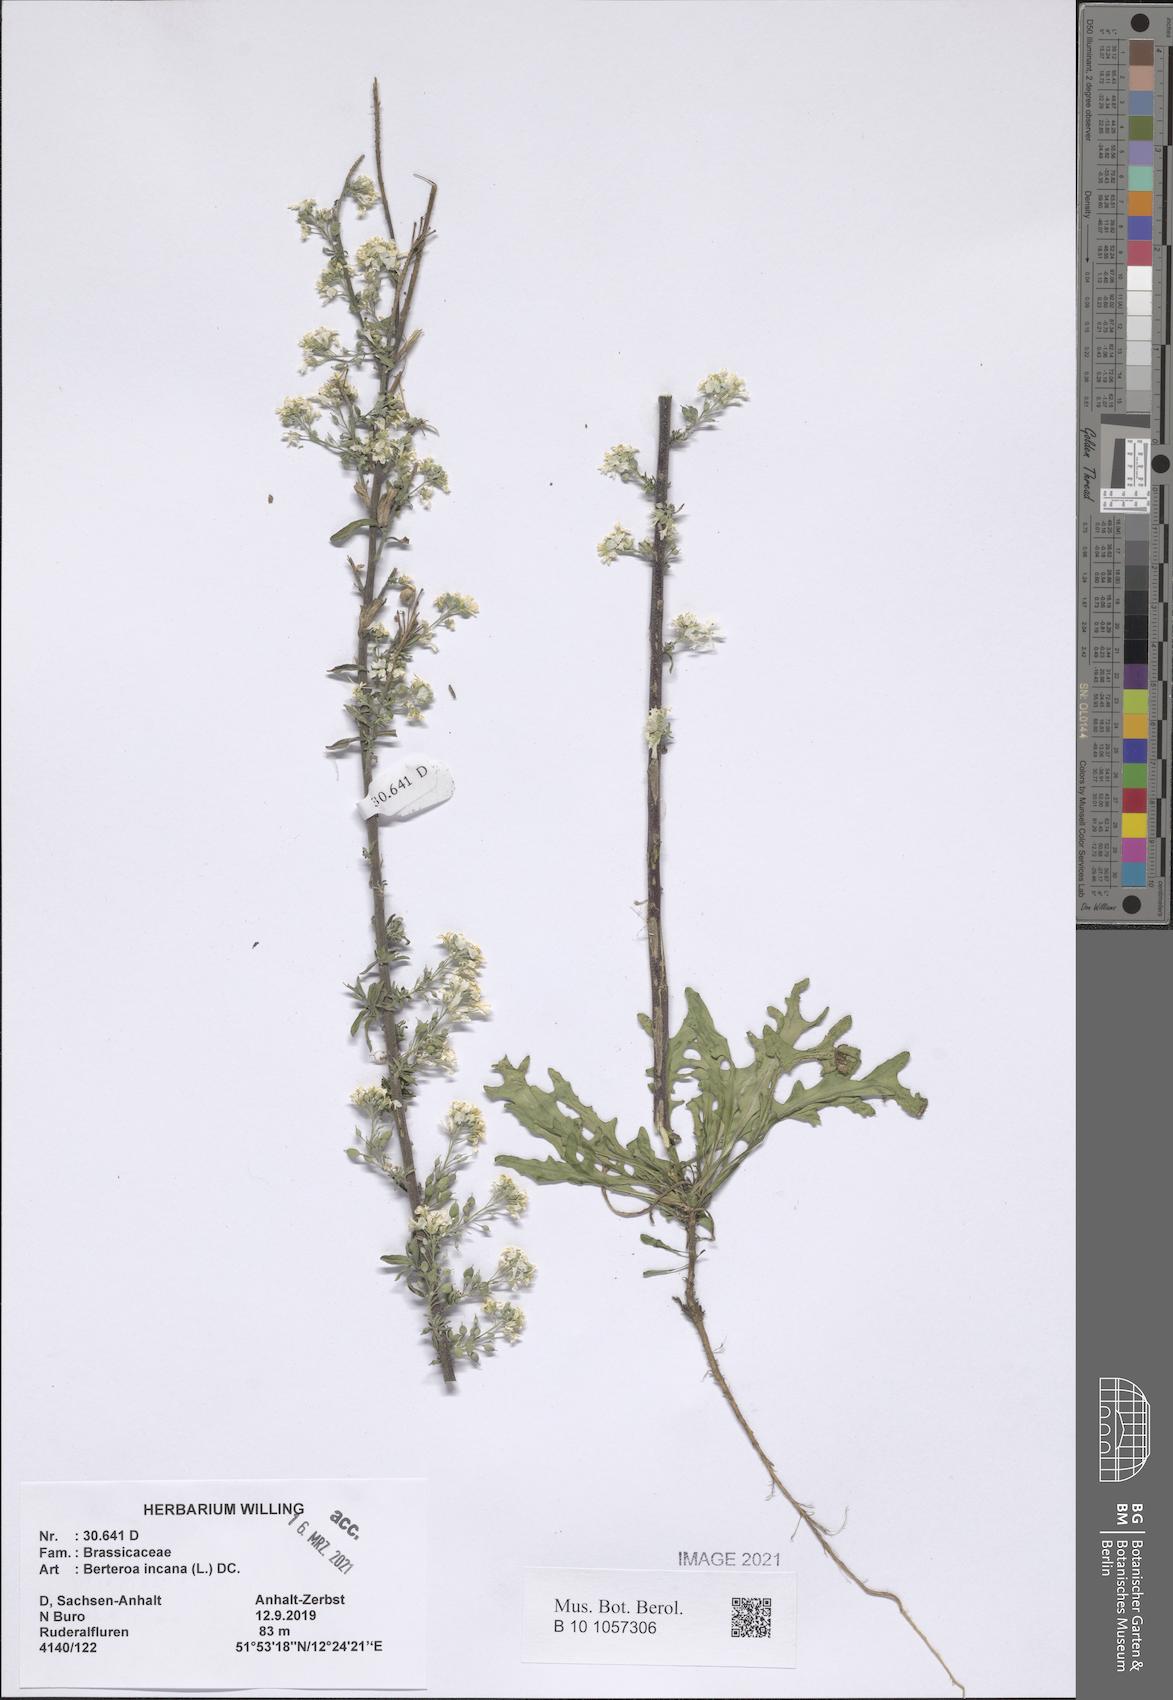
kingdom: Plantae
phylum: Tracheophyta
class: Magnoliopsida
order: Brassicales
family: Brassicaceae
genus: Berteroa
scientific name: Berteroa incana
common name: Hoary alison
